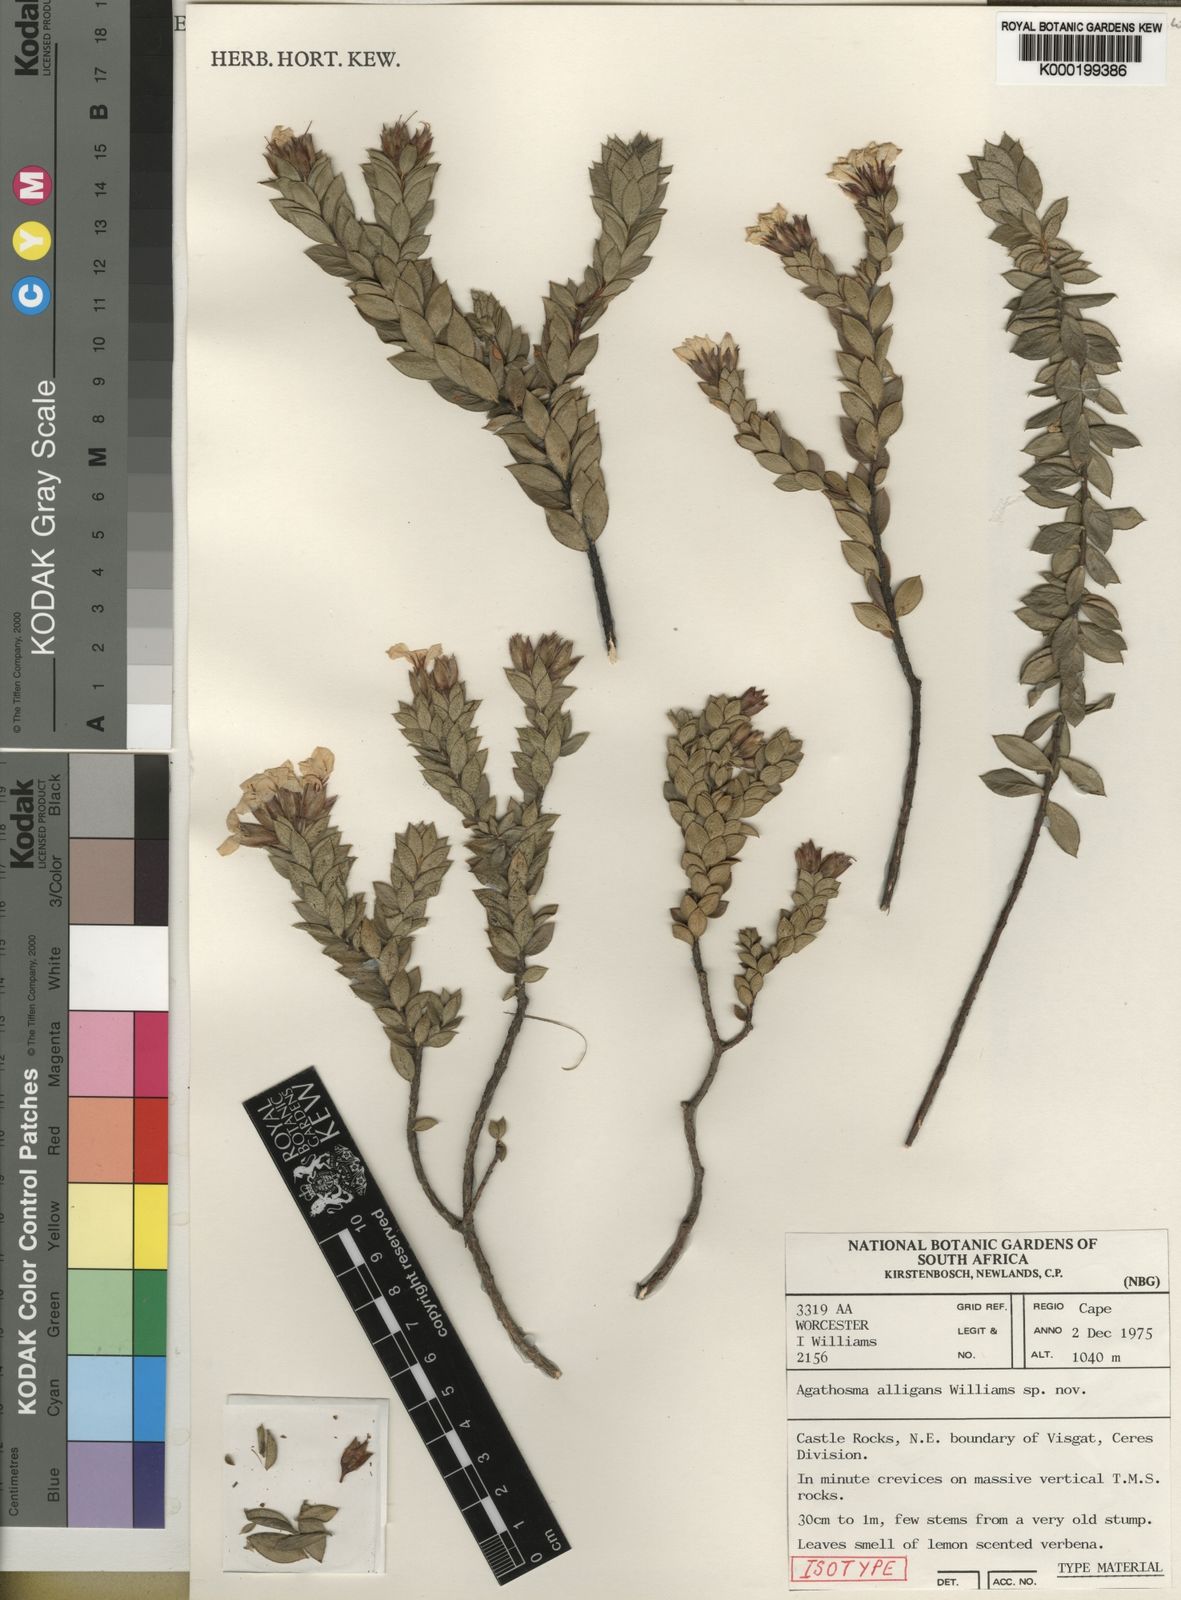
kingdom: Plantae
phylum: Tracheophyta
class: Magnoliopsida
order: Sapindales
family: Rutaceae
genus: Agathosma
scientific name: Agathosma alligans
